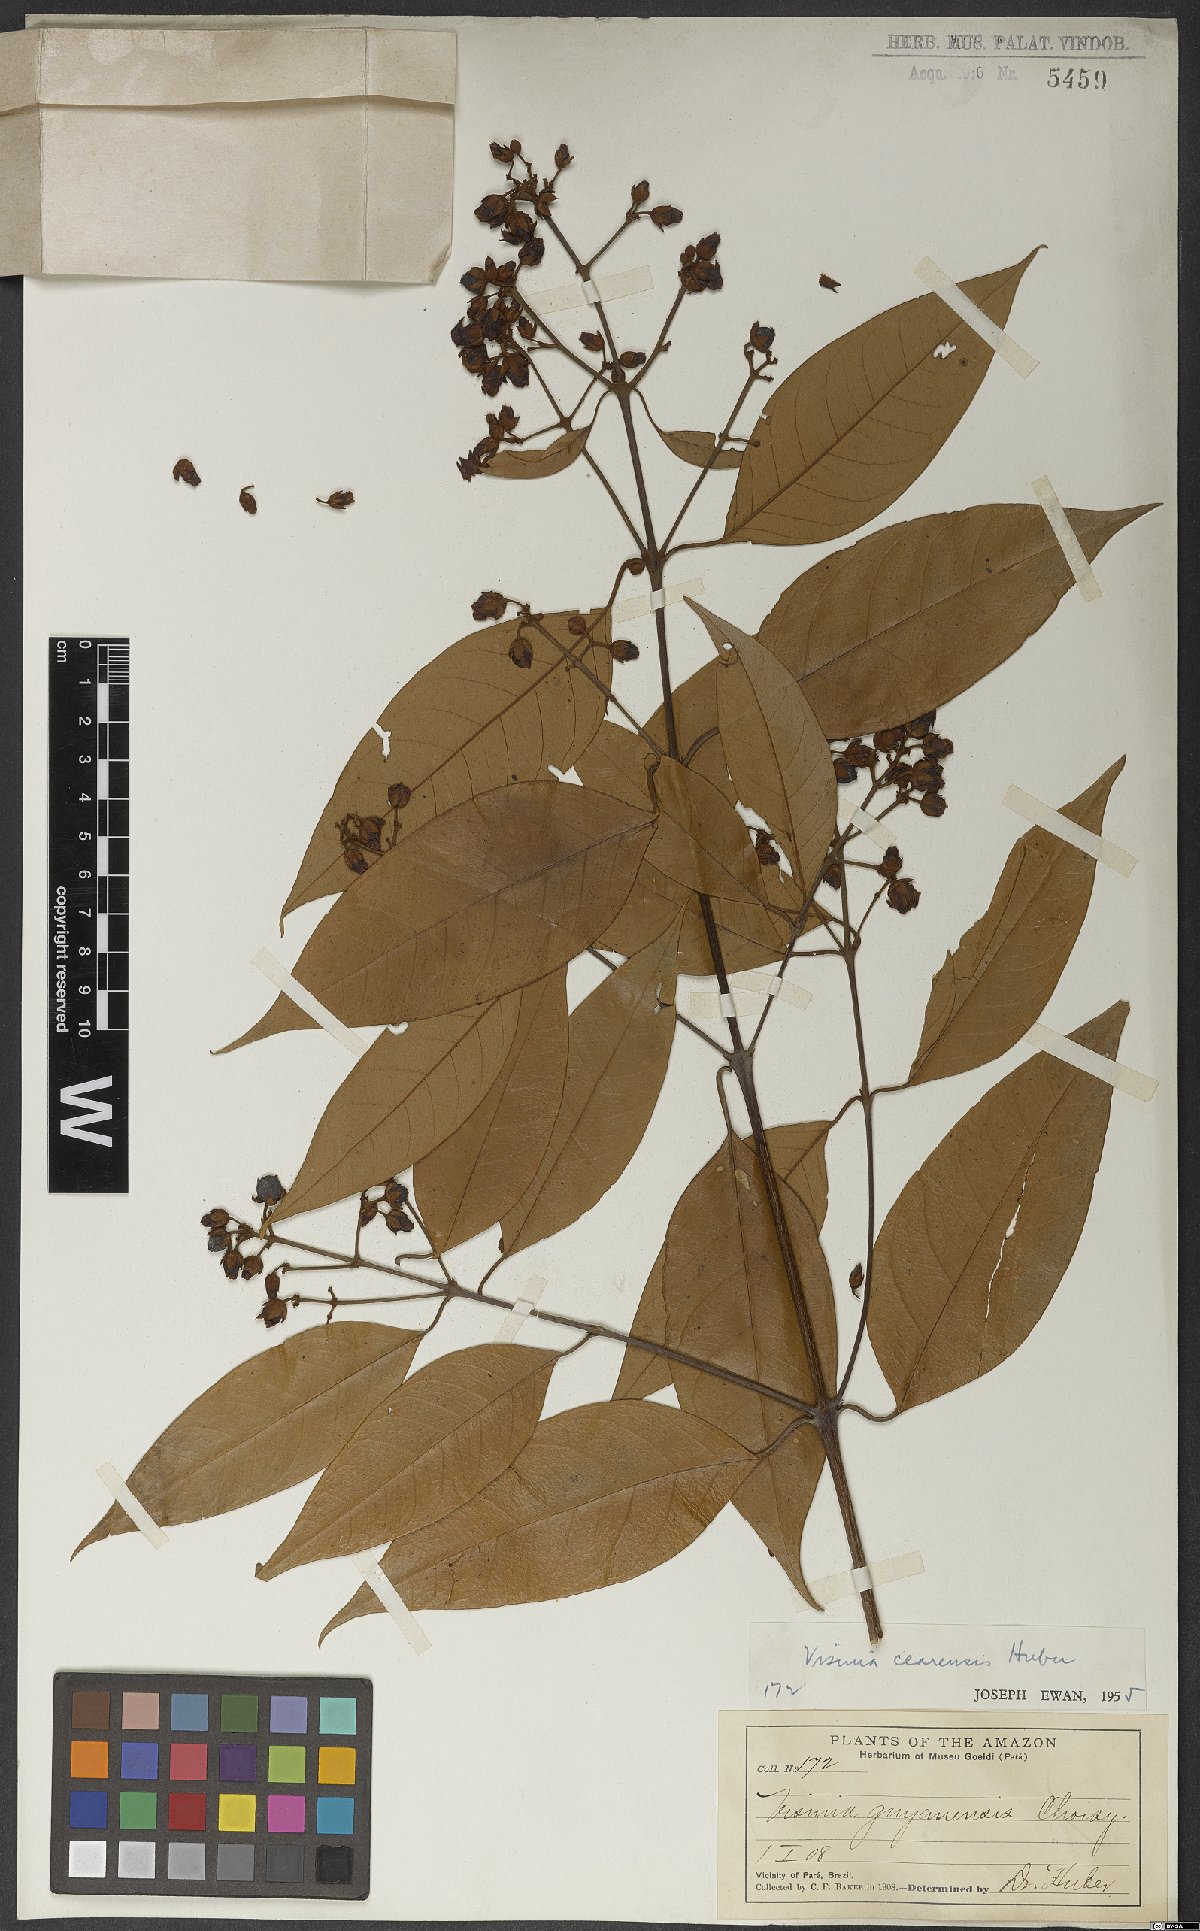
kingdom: Plantae
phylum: Tracheophyta
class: Magnoliopsida
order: Malpighiales
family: Hypericaceae
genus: Vismia
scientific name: Vismia gracilis
